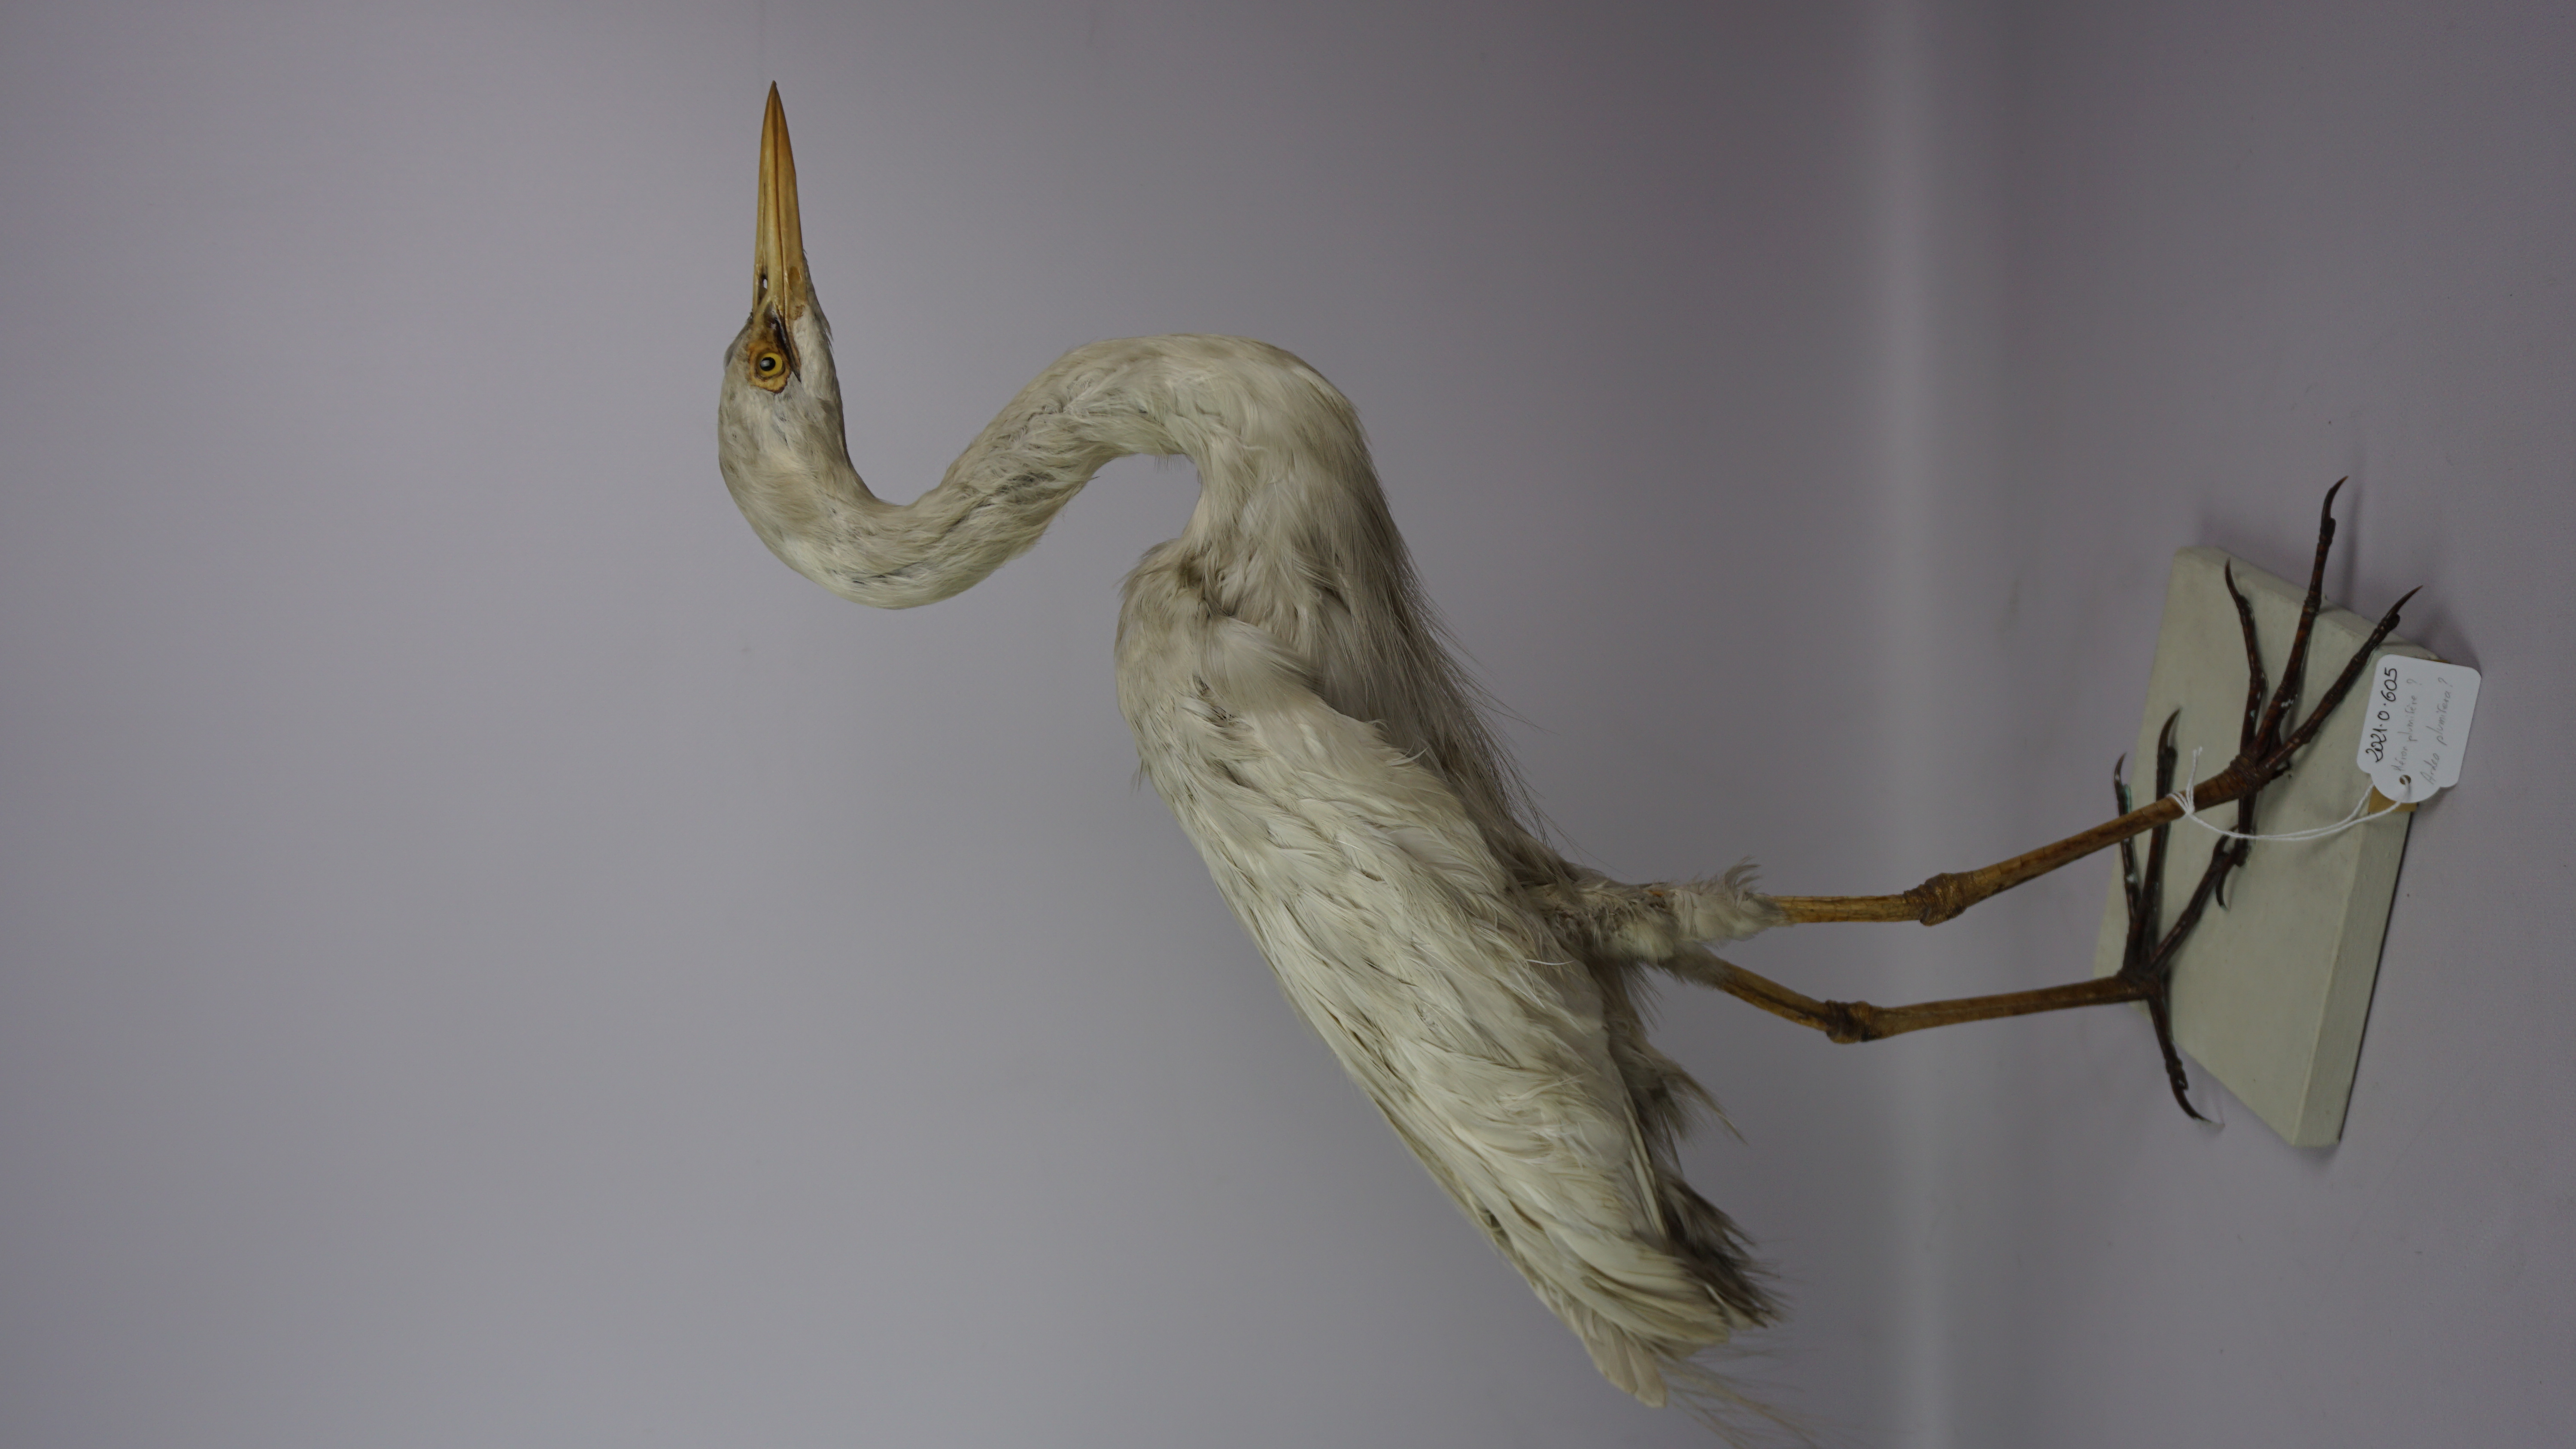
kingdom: Animalia
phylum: Chordata
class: Aves
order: Pelecaniformes
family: Ardeidae
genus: Egretta
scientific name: Egretta intermedia
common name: Intermediate egret
